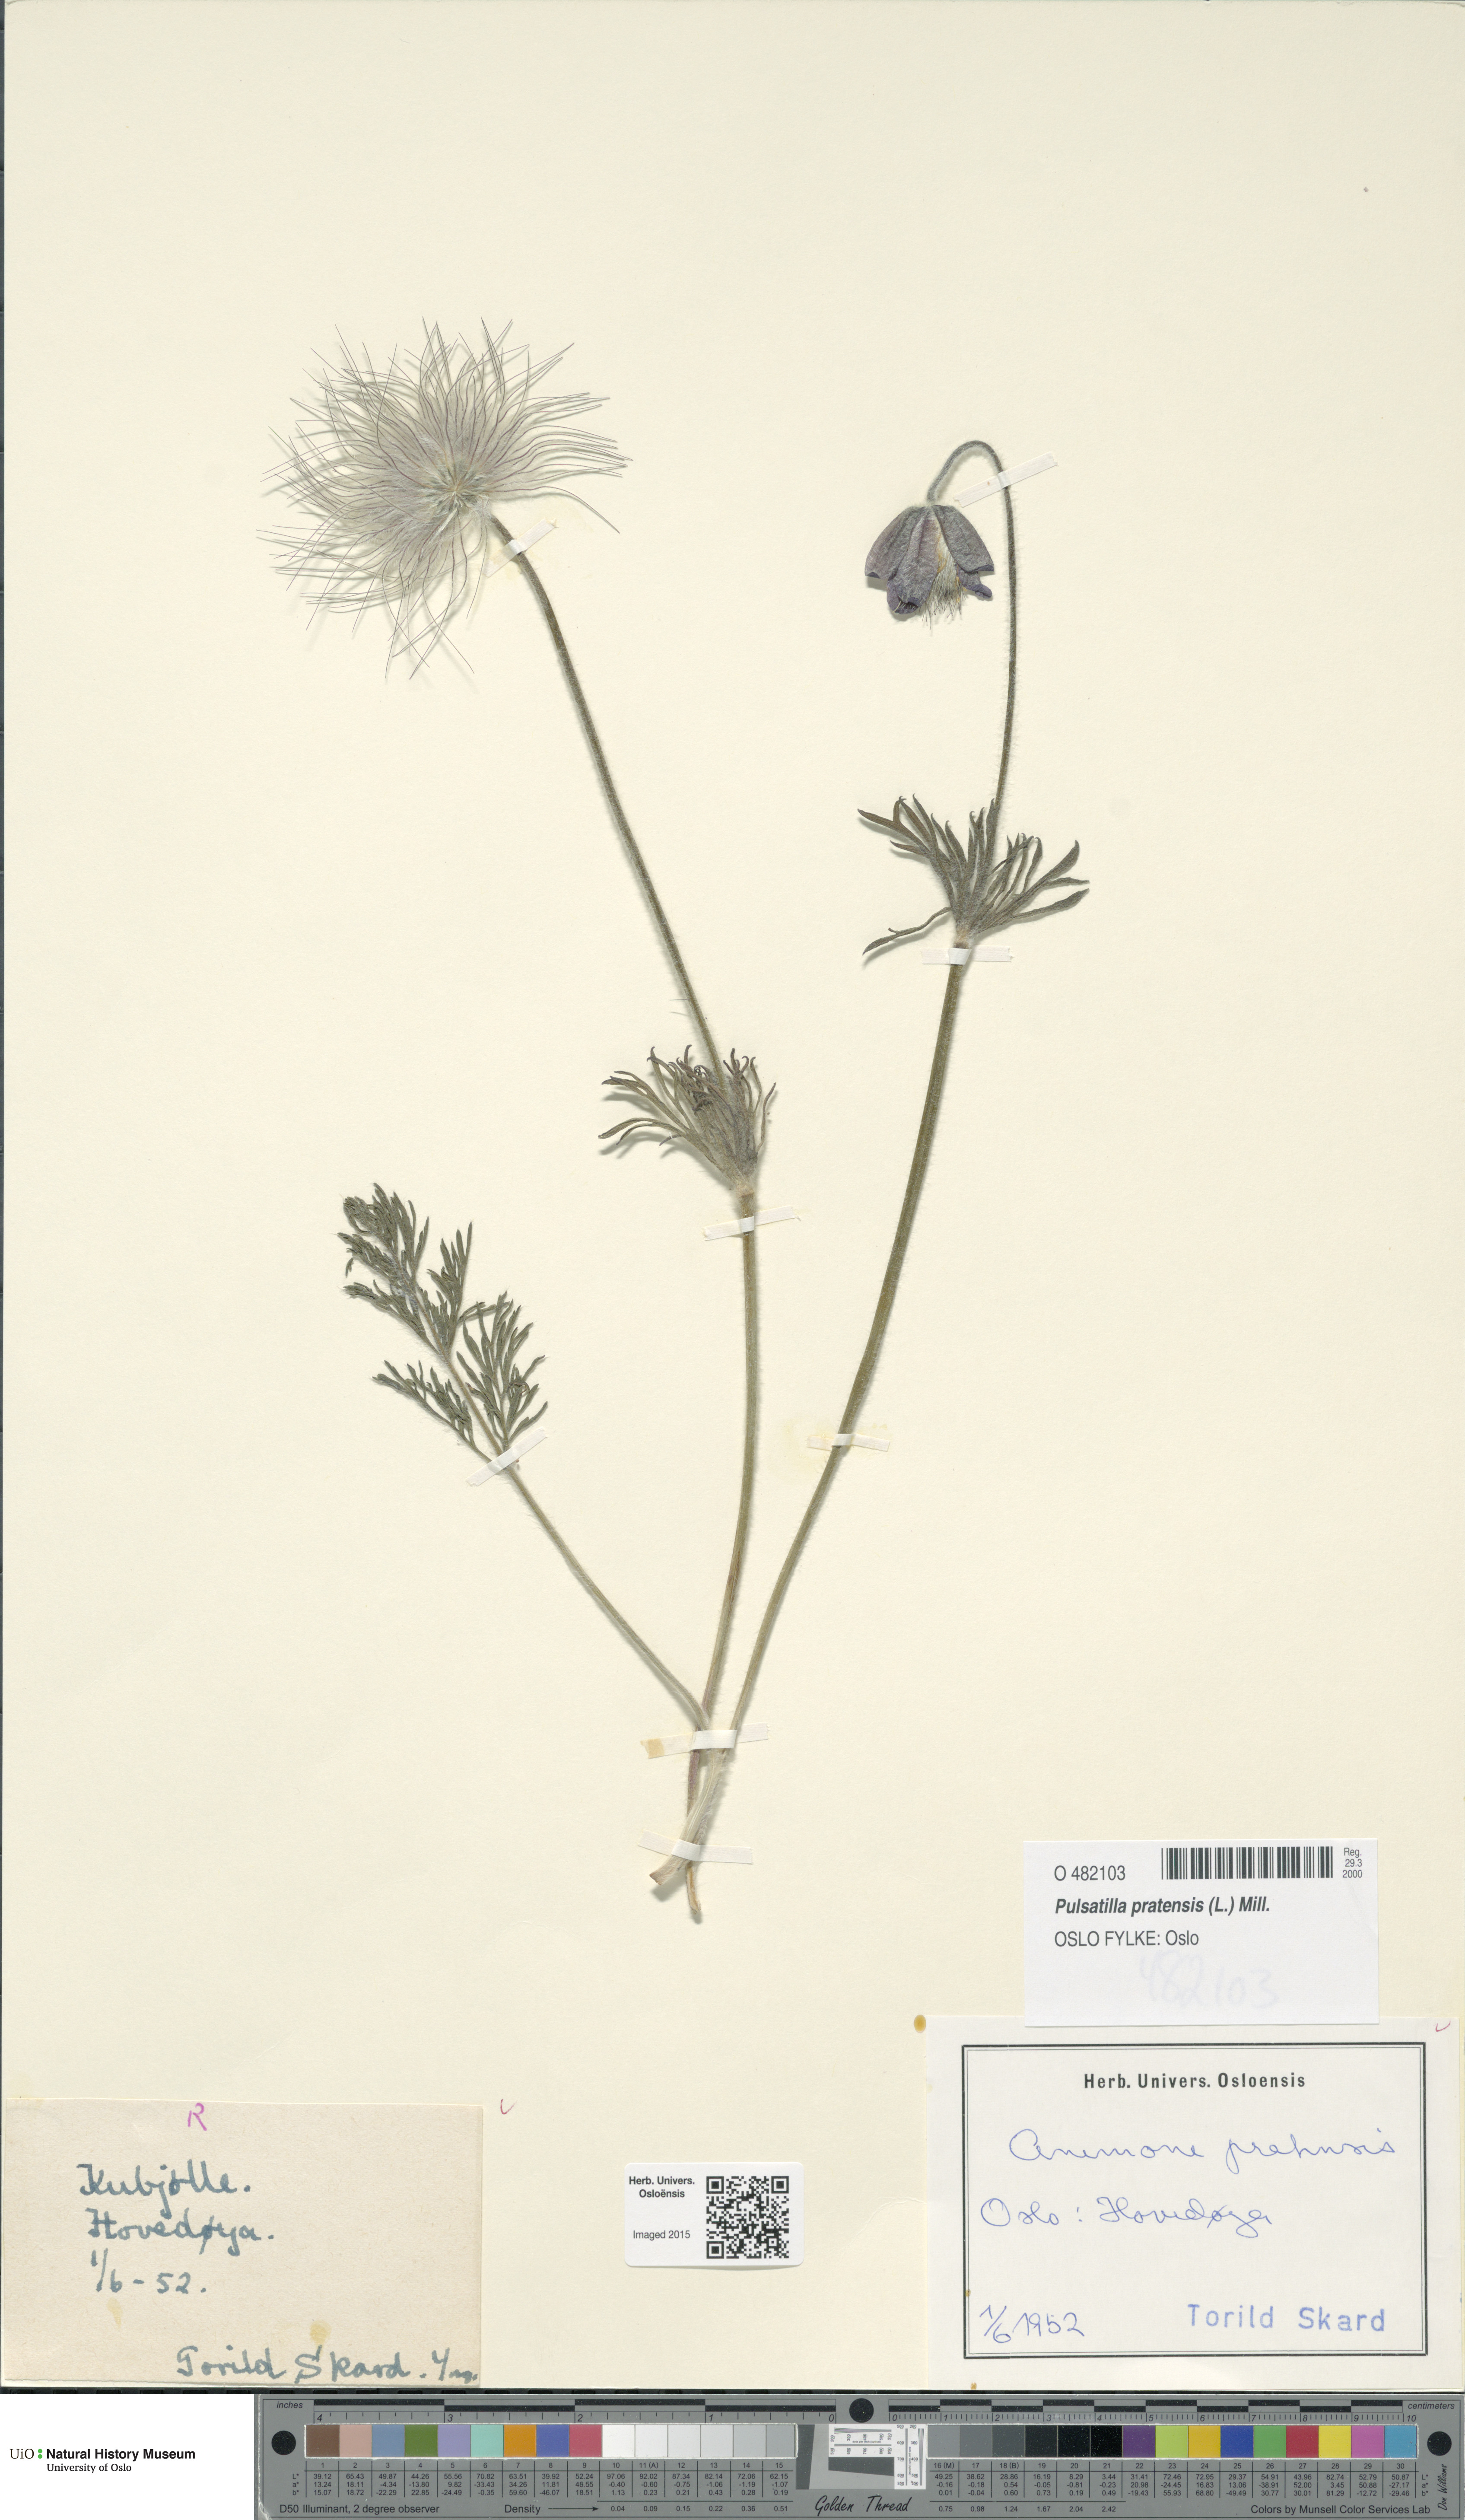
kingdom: Plantae
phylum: Tracheophyta
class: Magnoliopsida
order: Ranunculales
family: Ranunculaceae
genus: Pulsatilla
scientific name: Pulsatilla pratensis
